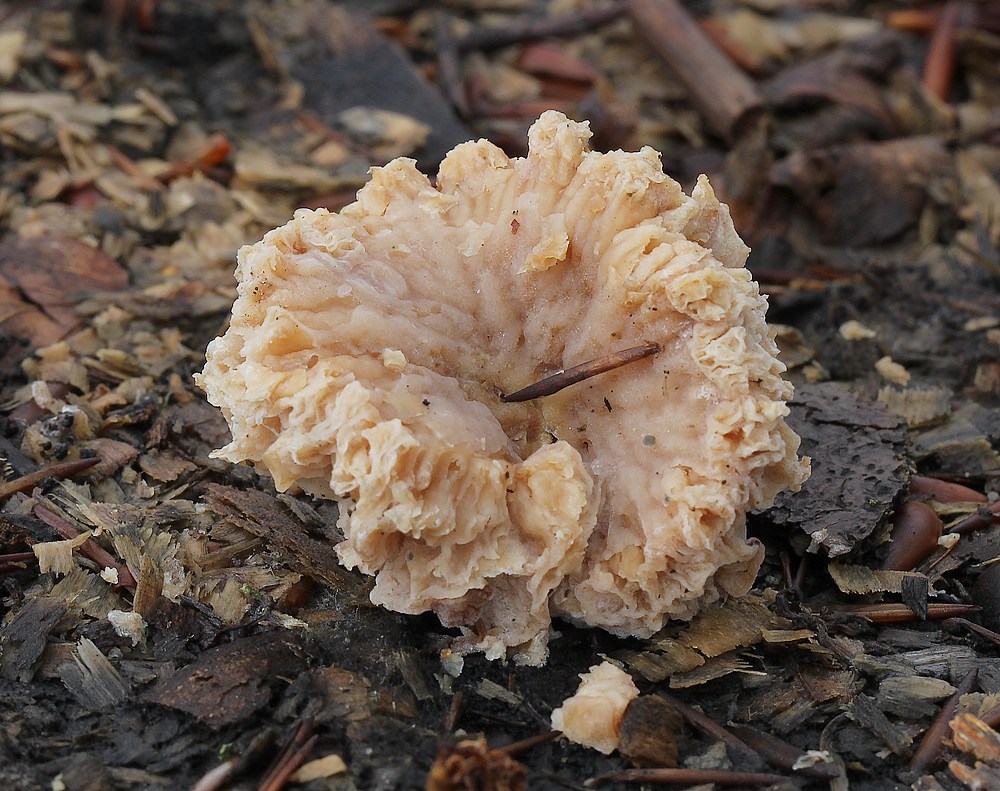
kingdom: Fungi
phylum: Ascomycota
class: Sordariomycetes
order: Hypocreales
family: Hypocreaceae
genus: Hypomyces
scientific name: Hypomyces tubariicola
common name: fnughat-snylteskorpe
